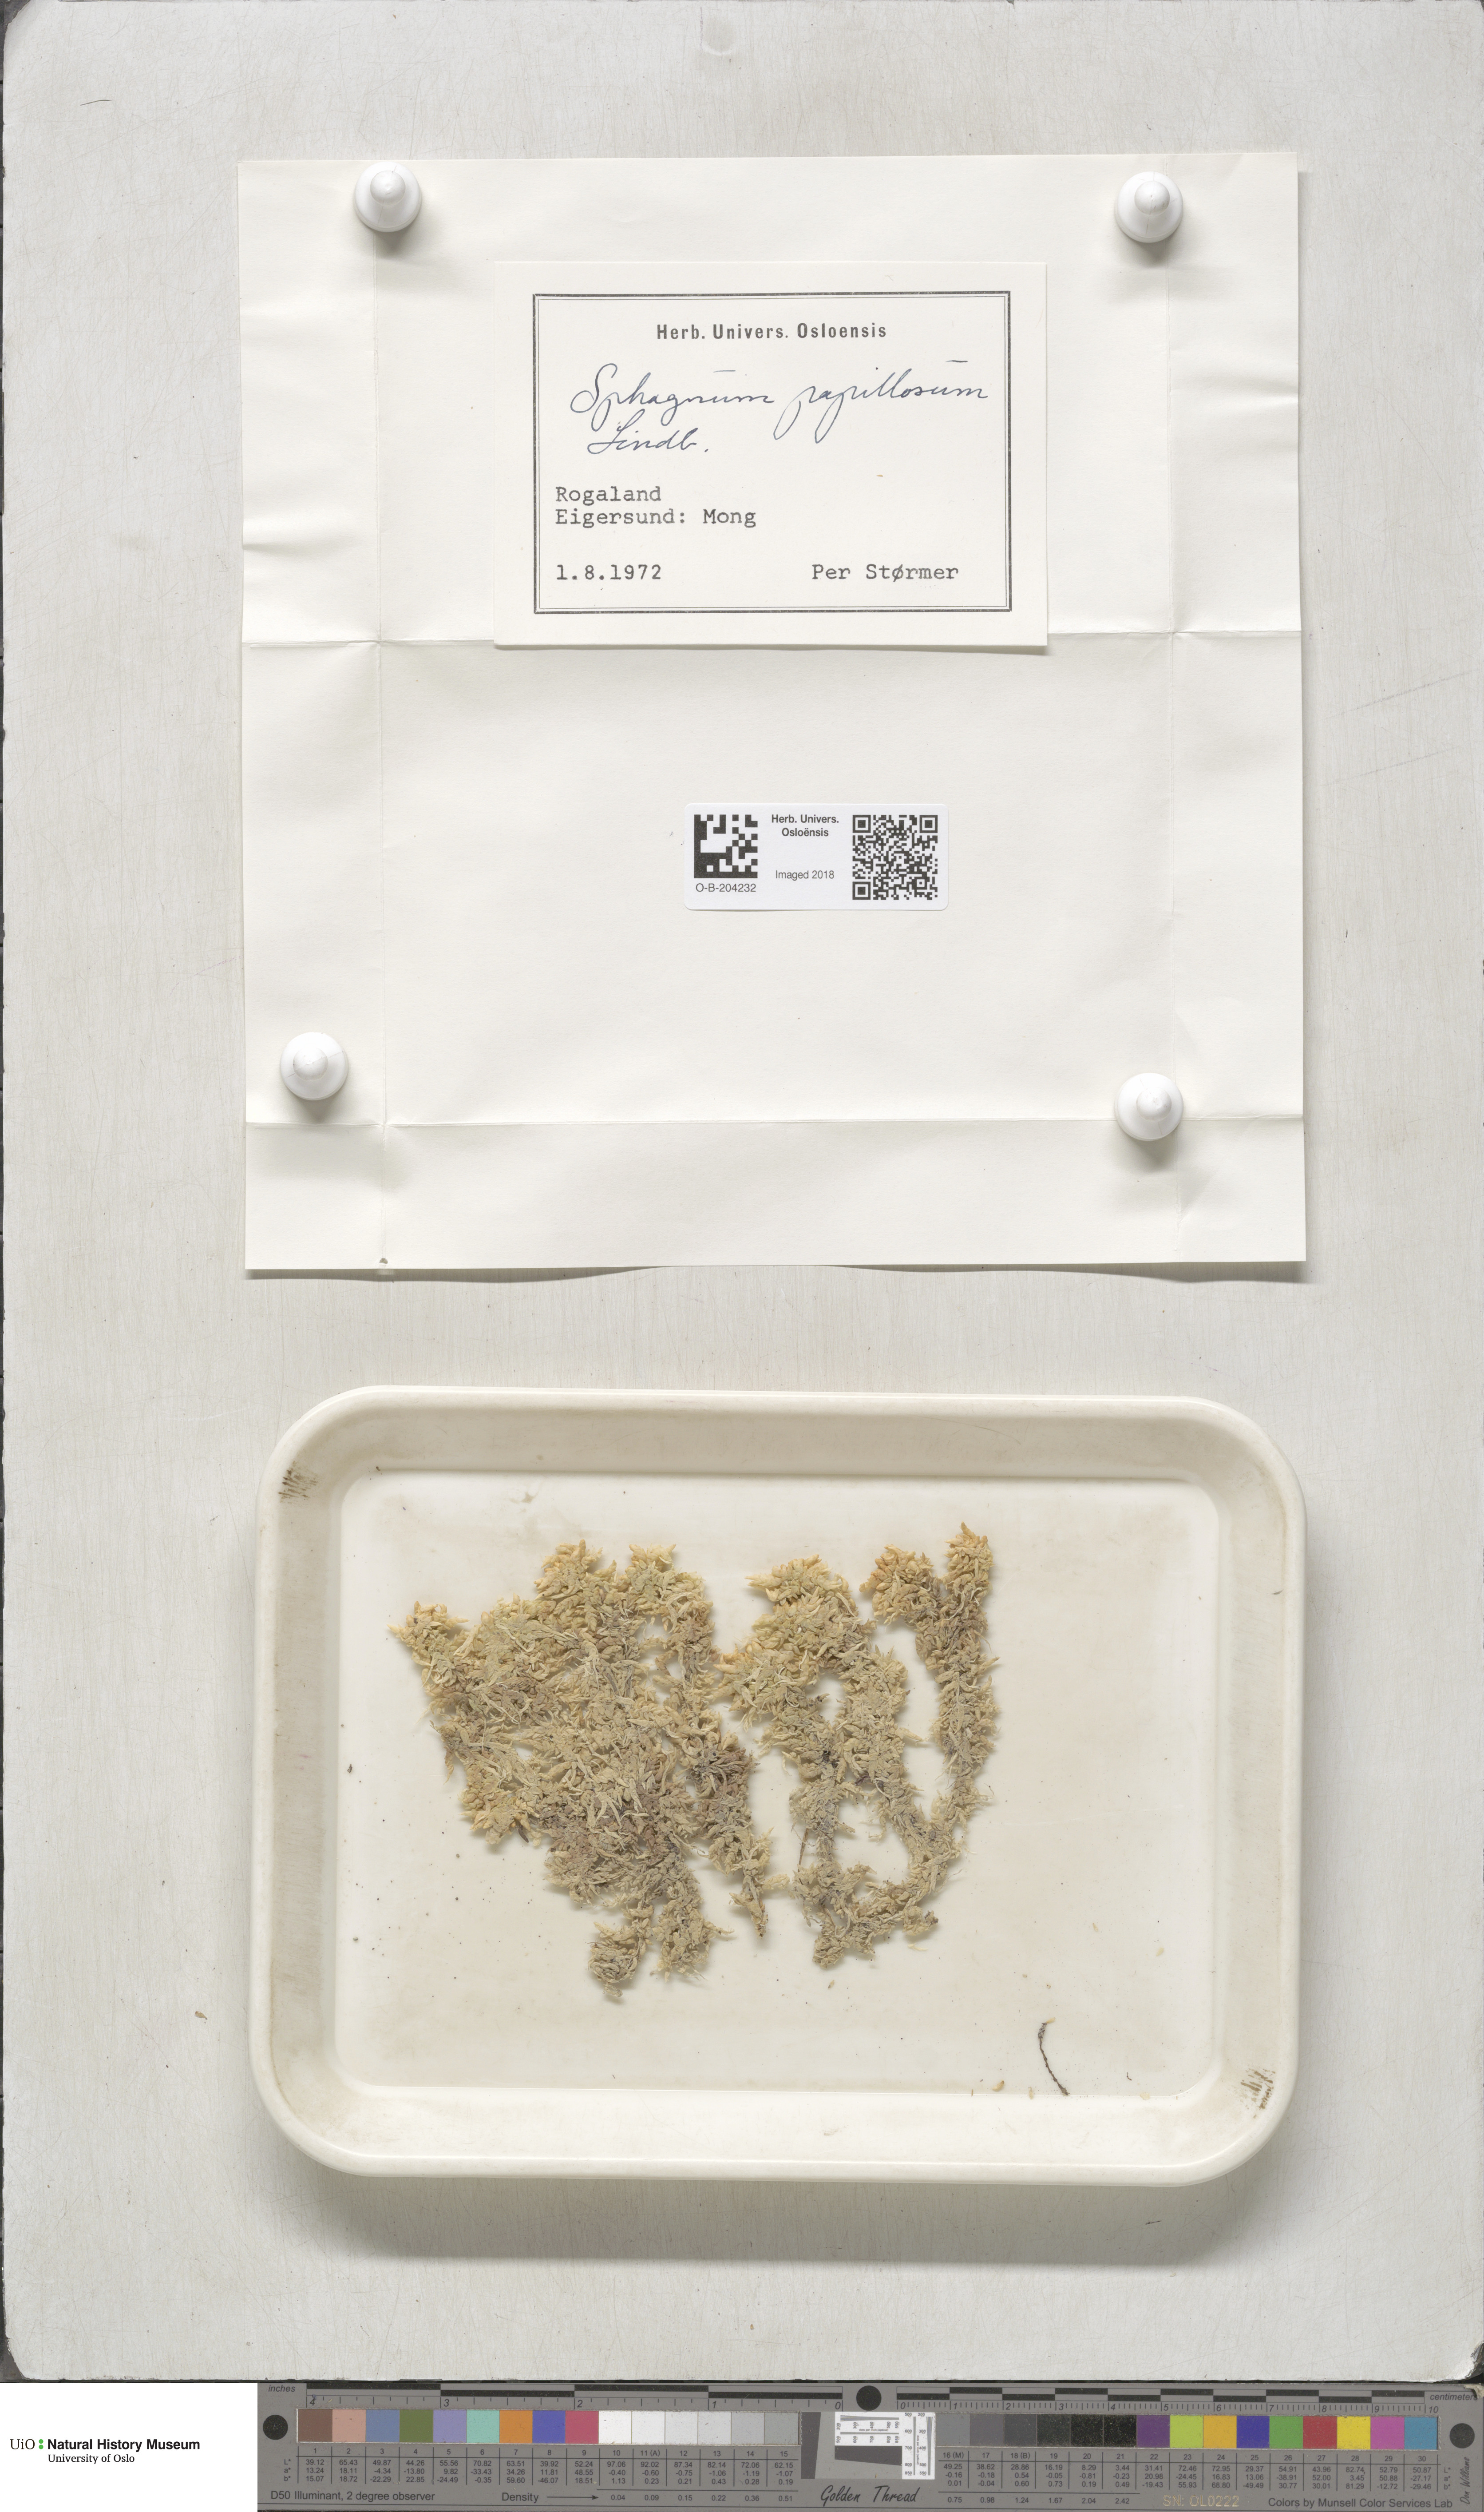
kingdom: Plantae
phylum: Bryophyta
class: Sphagnopsida
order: Sphagnales
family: Sphagnaceae
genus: Sphagnum
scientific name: Sphagnum papillosum
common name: Papillose peat moss
